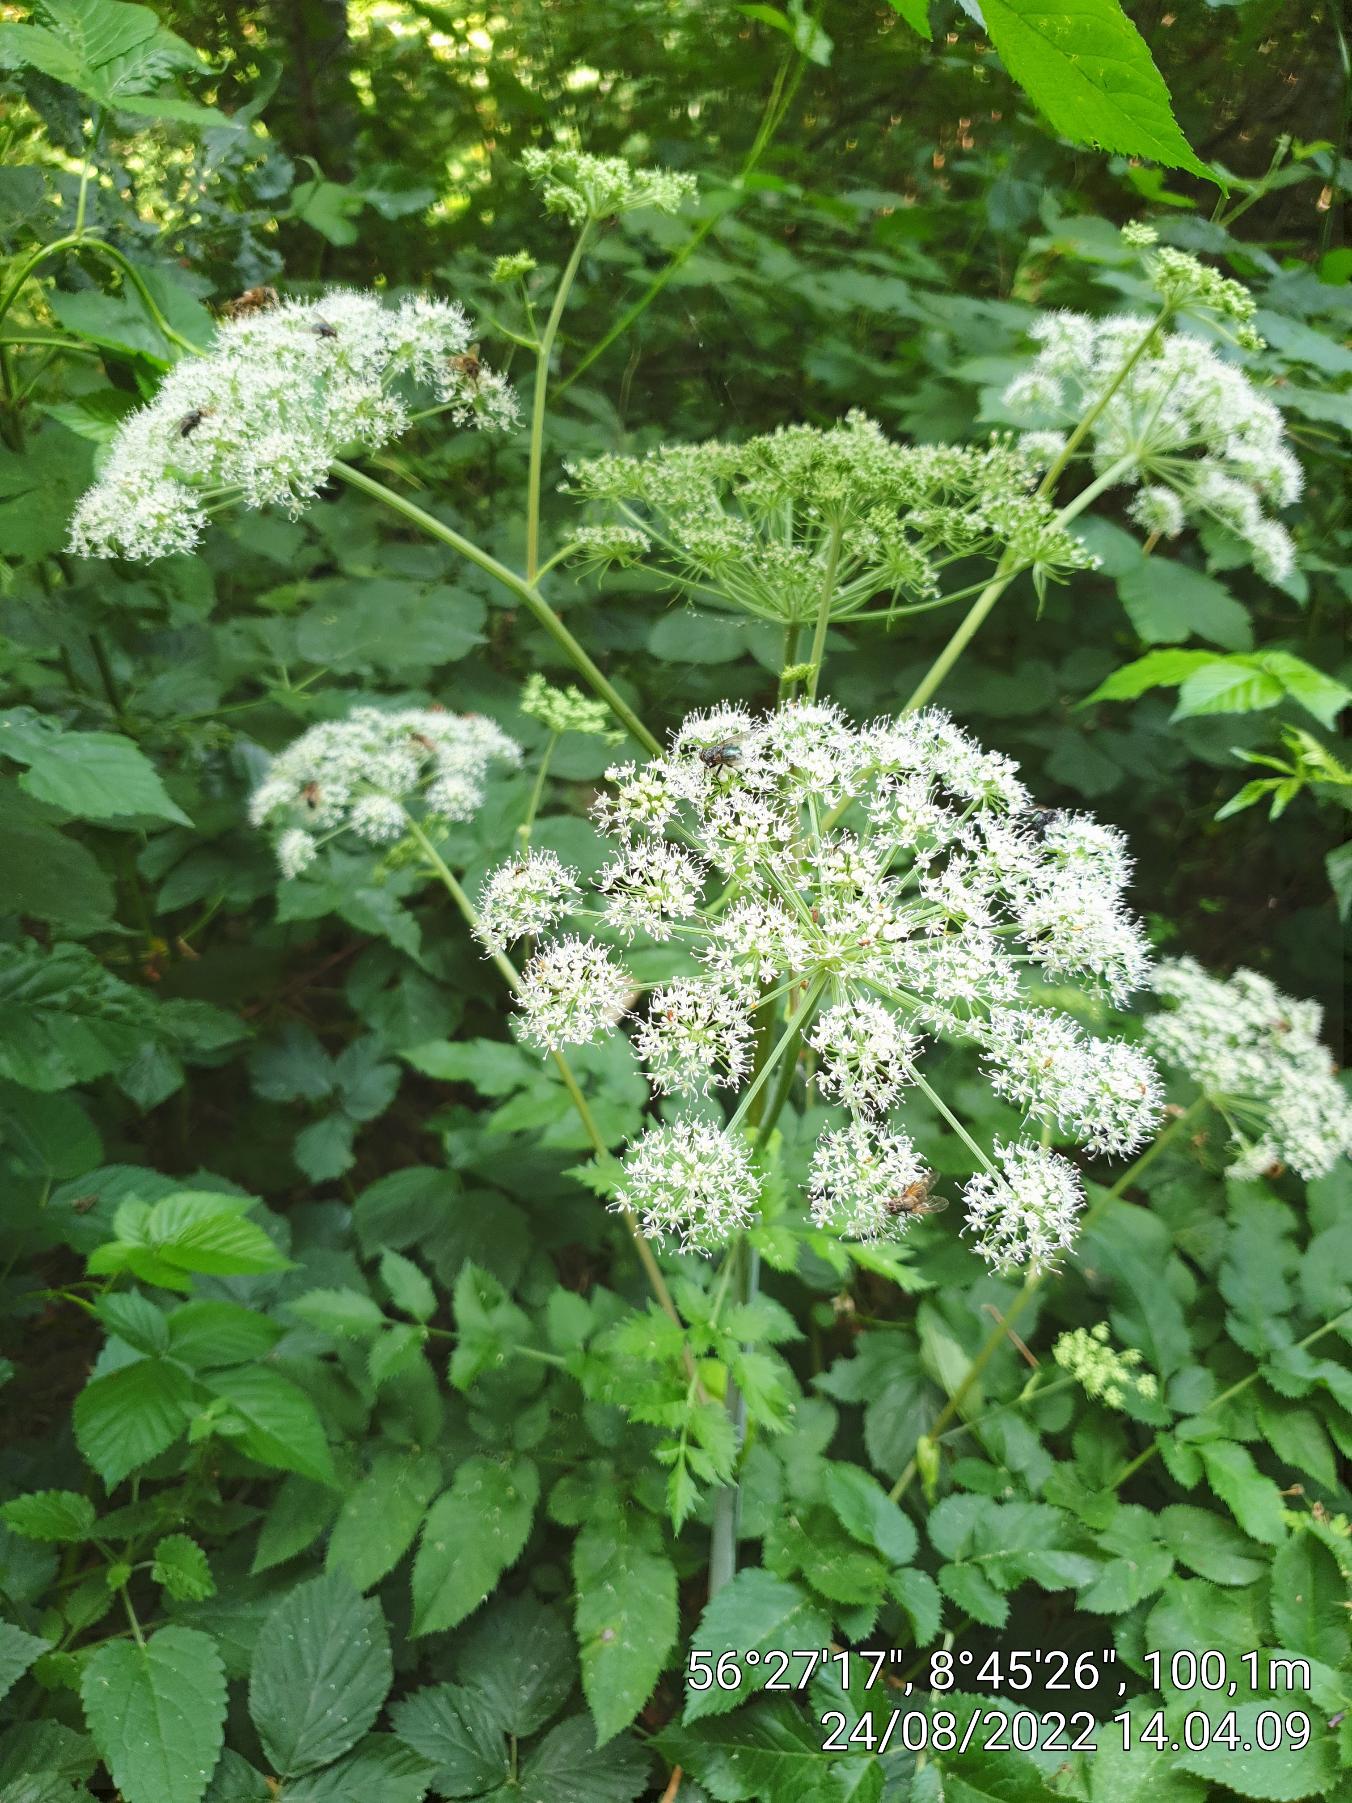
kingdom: Plantae
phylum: Tracheophyta
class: Magnoliopsida
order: Apiales
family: Apiaceae
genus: Angelica
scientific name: Angelica sylvestris
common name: Angelik
